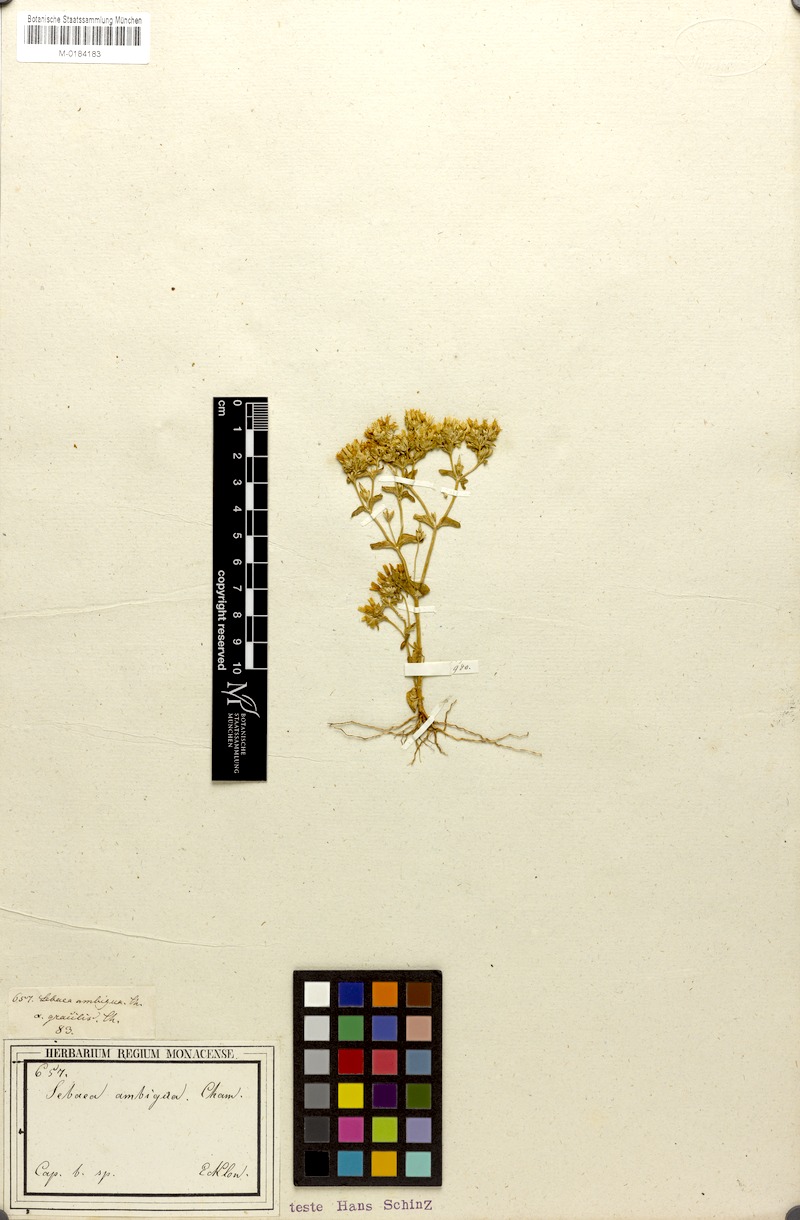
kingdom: Plantae
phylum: Tracheophyta
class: Magnoliopsida
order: Gentianales
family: Gentianaceae
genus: Sebaea
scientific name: Sebaea ambigua
